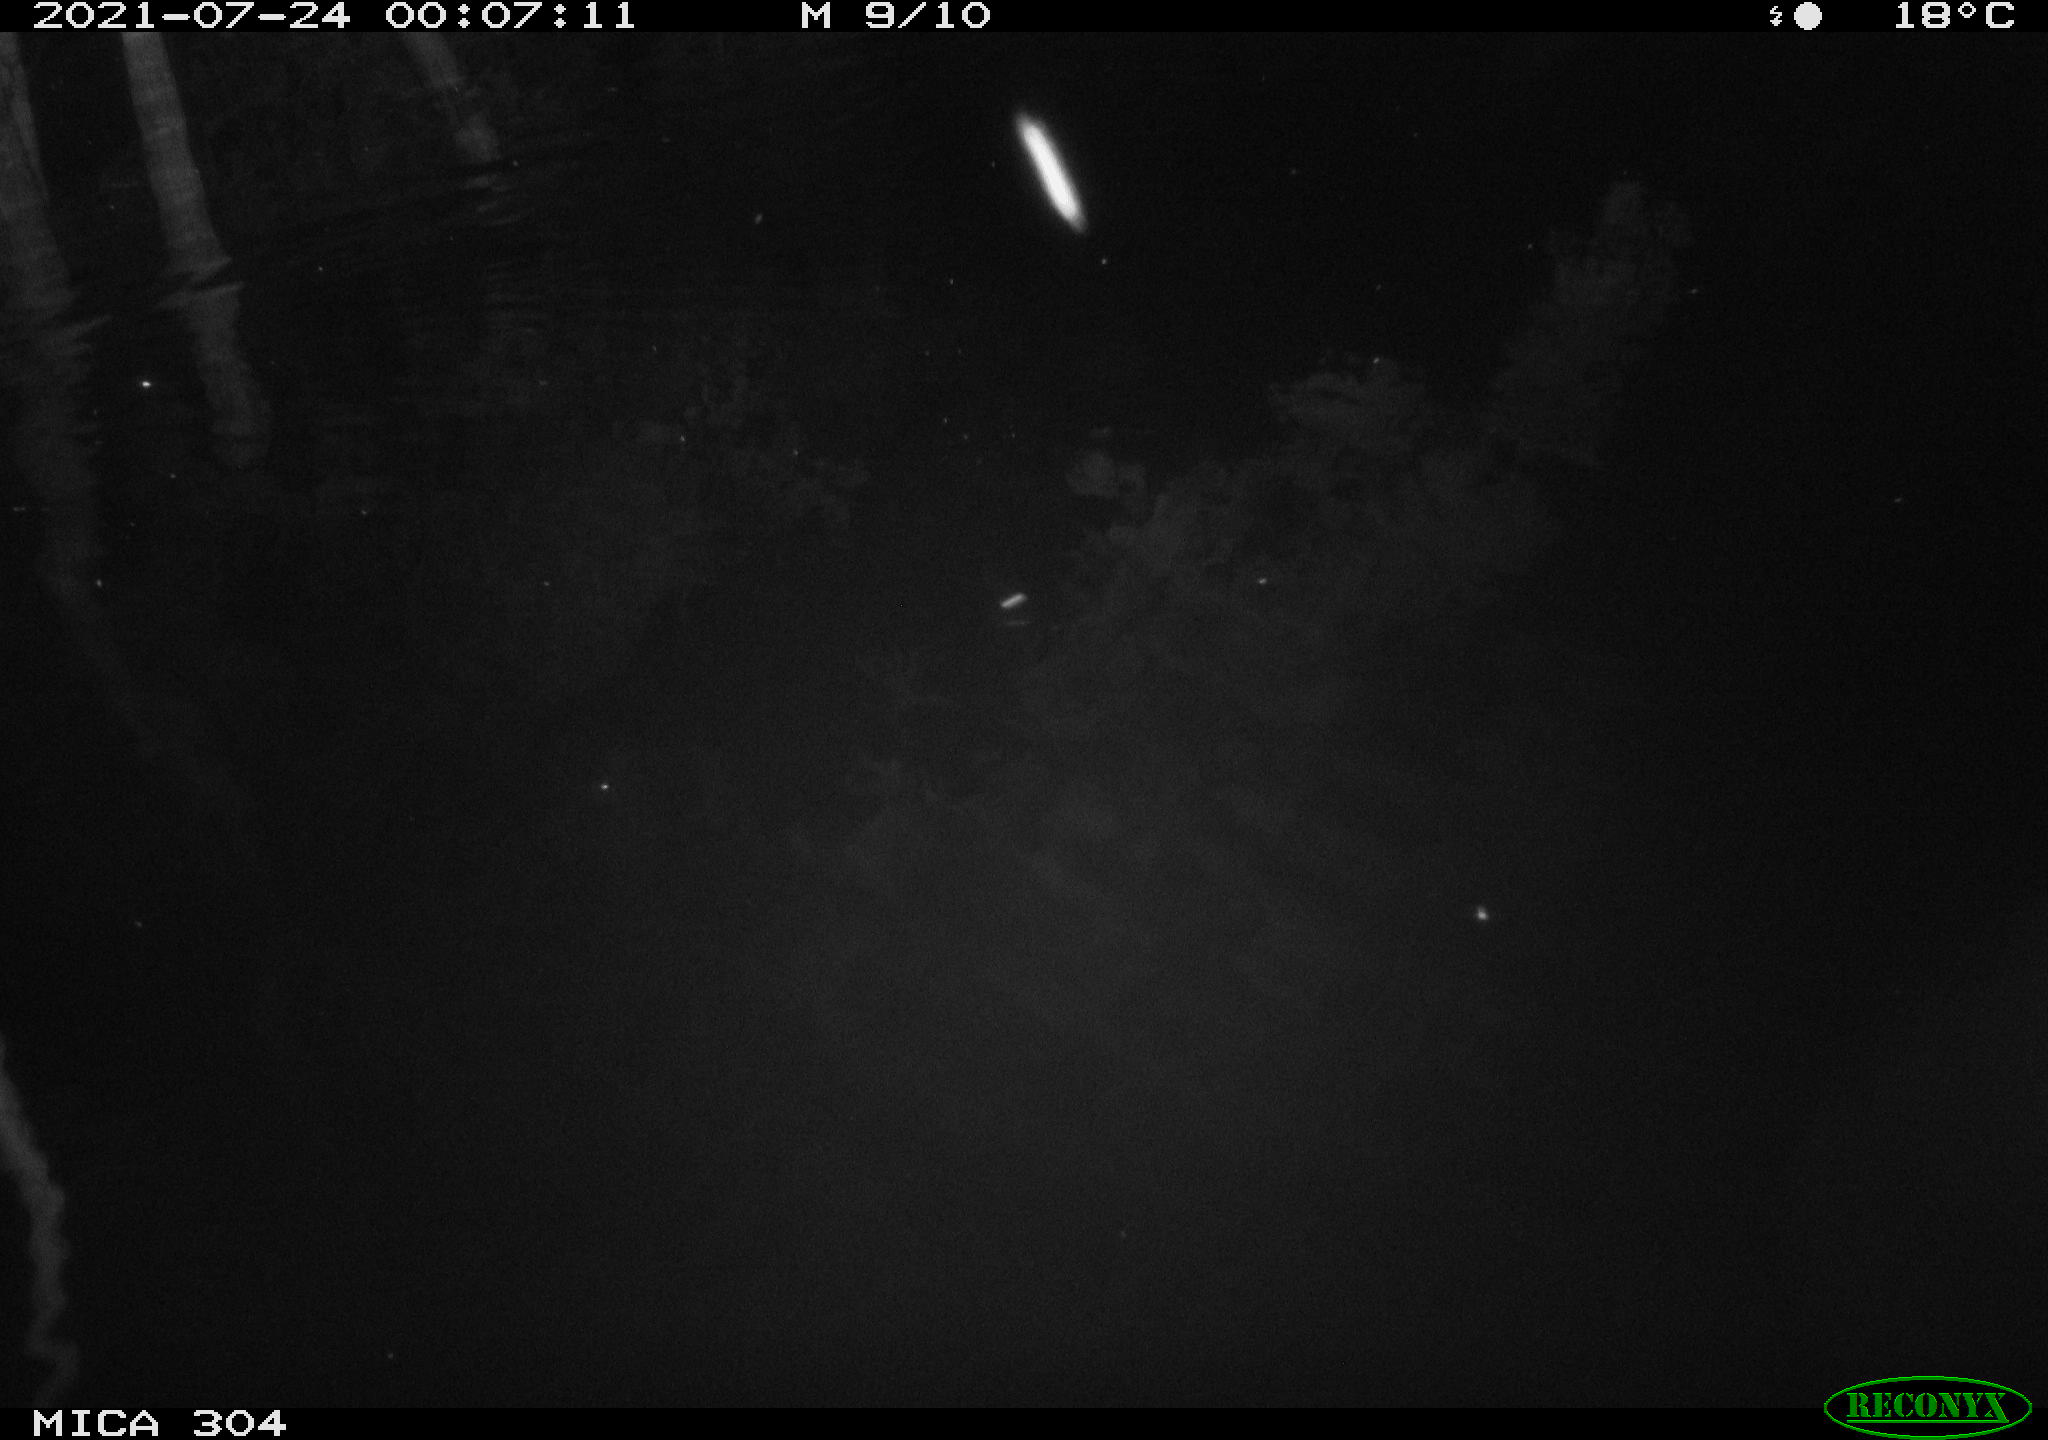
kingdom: Animalia
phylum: Chordata
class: Mammalia
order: Rodentia
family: Muridae
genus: Rattus
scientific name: Rattus norvegicus
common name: Brown rat
